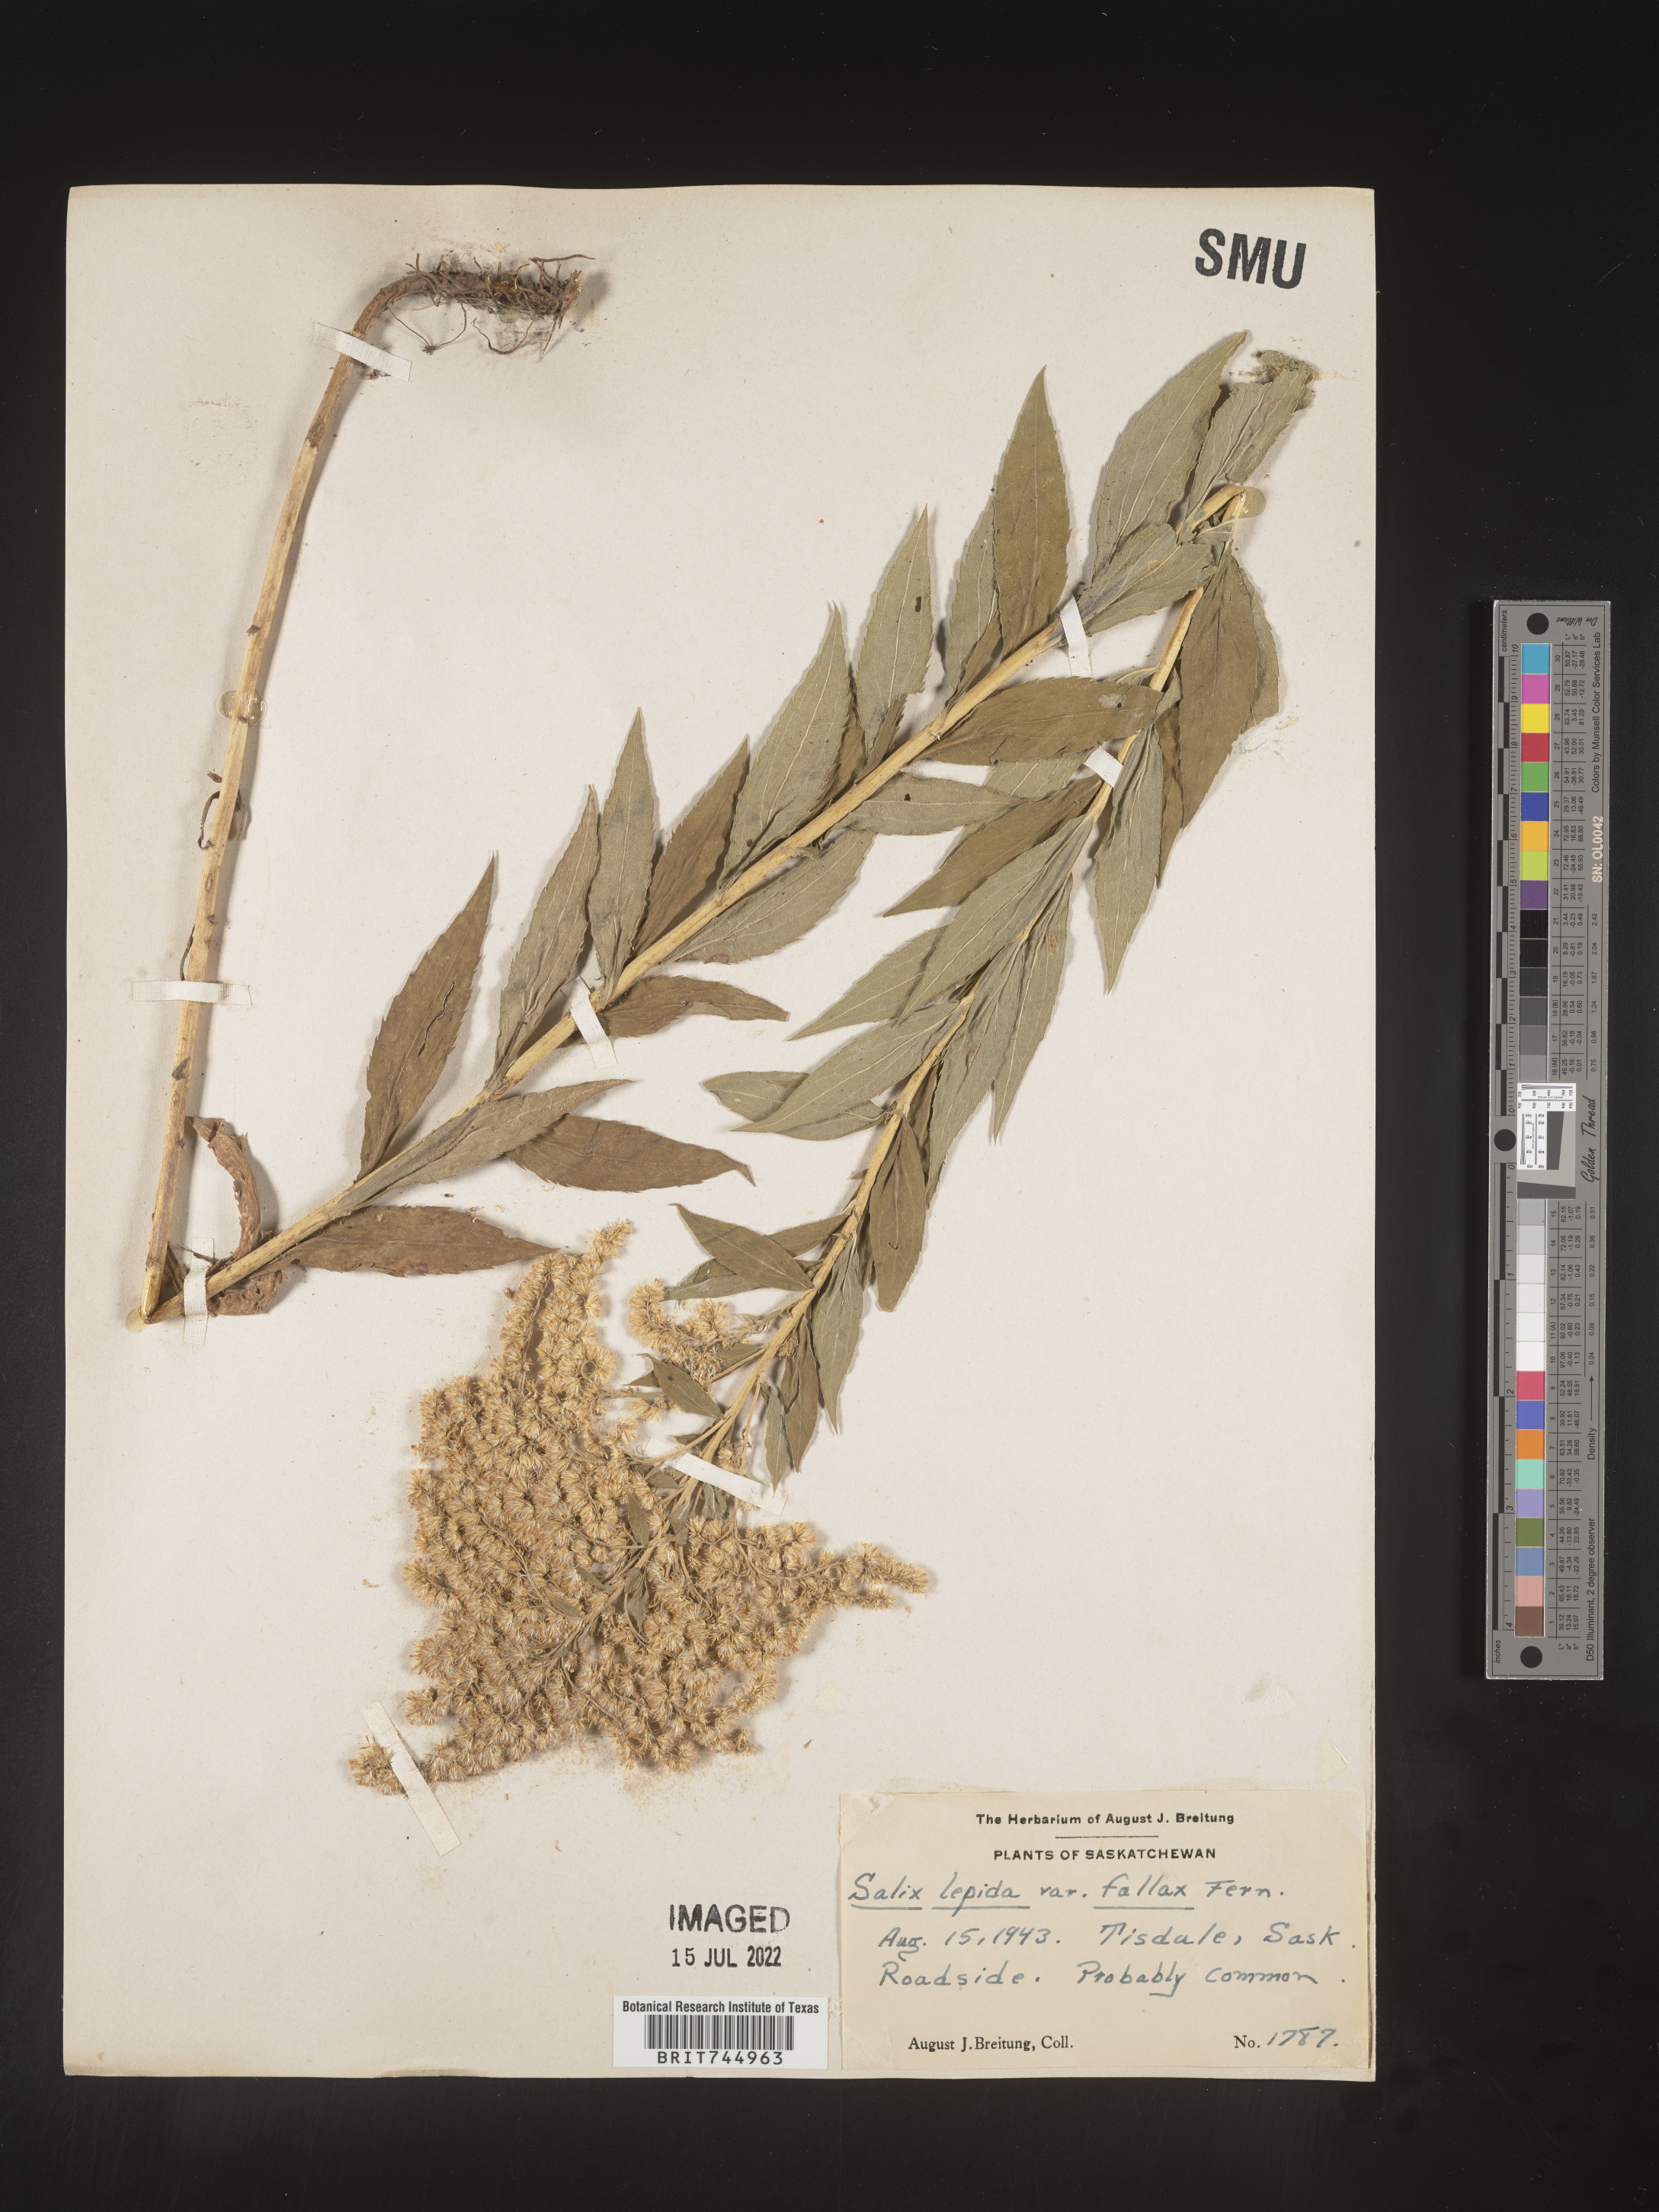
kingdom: Plantae
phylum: Tracheophyta
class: Magnoliopsida
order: Asterales
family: Asteraceae
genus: Solidago
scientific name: Solidago canadensis
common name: Canada goldenrod
